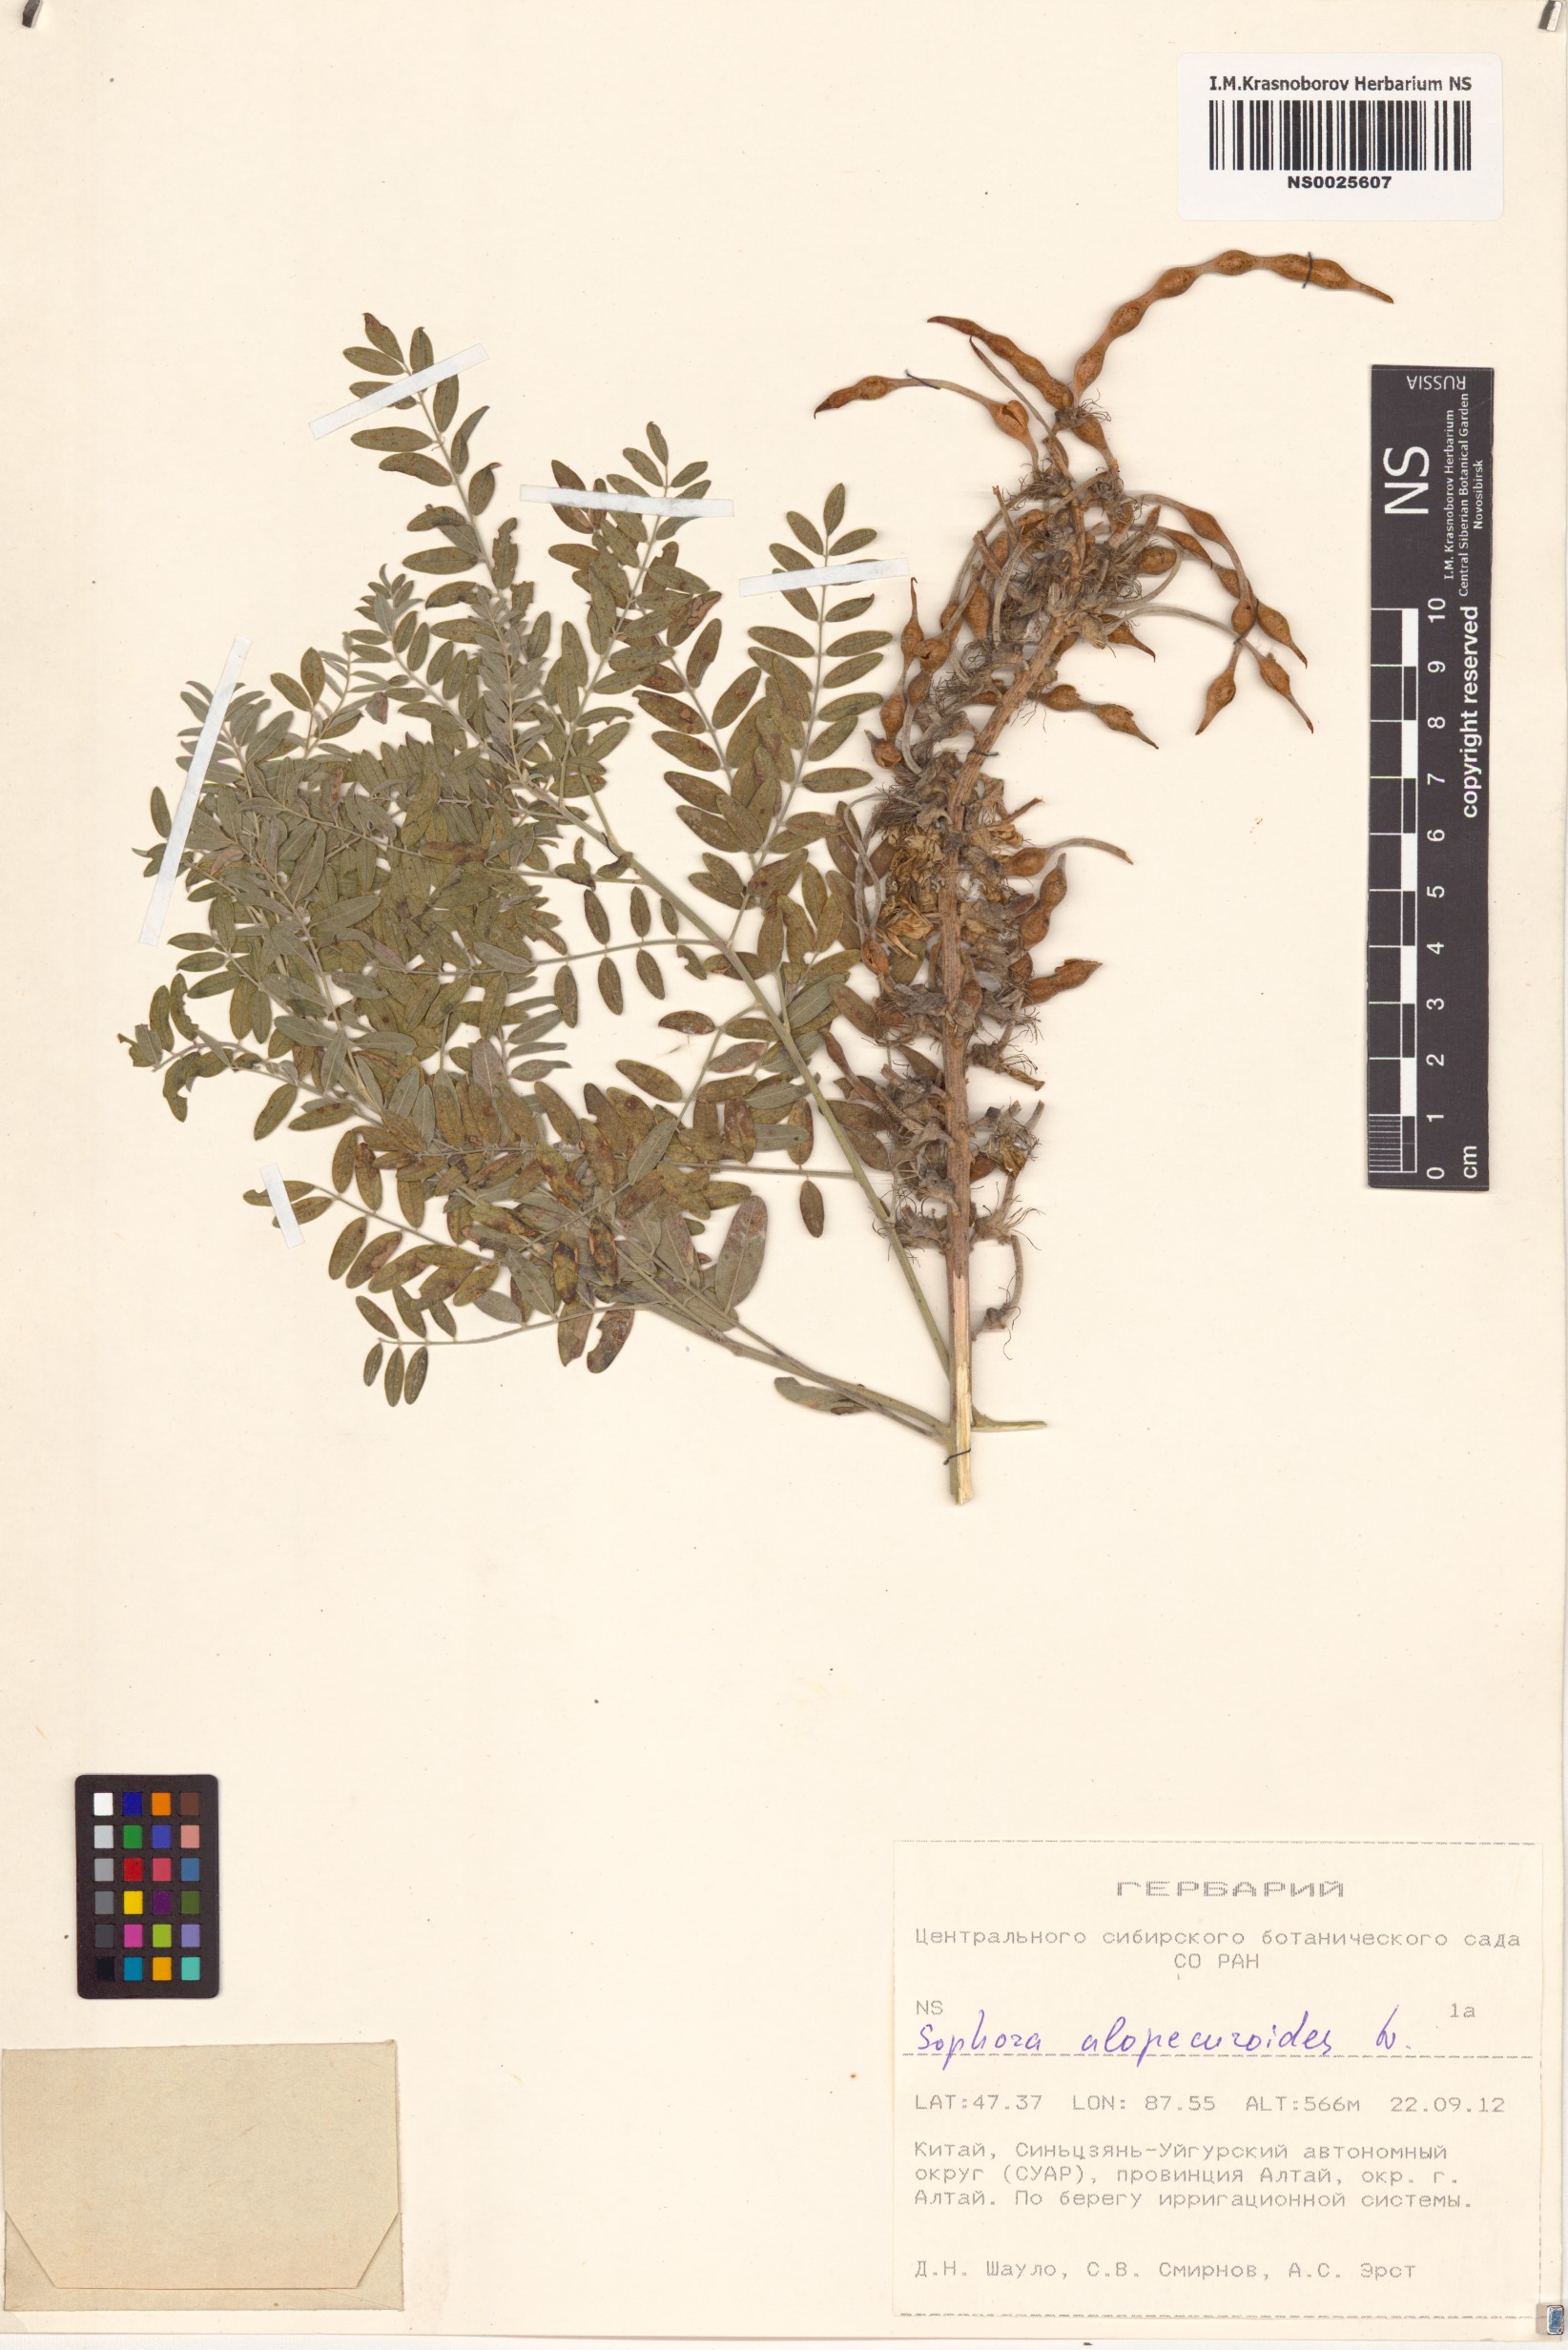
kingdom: Plantae
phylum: Tracheophyta
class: Magnoliopsida
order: Fabales
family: Fabaceae
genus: Sophora
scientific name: Sophora alopecuroides
